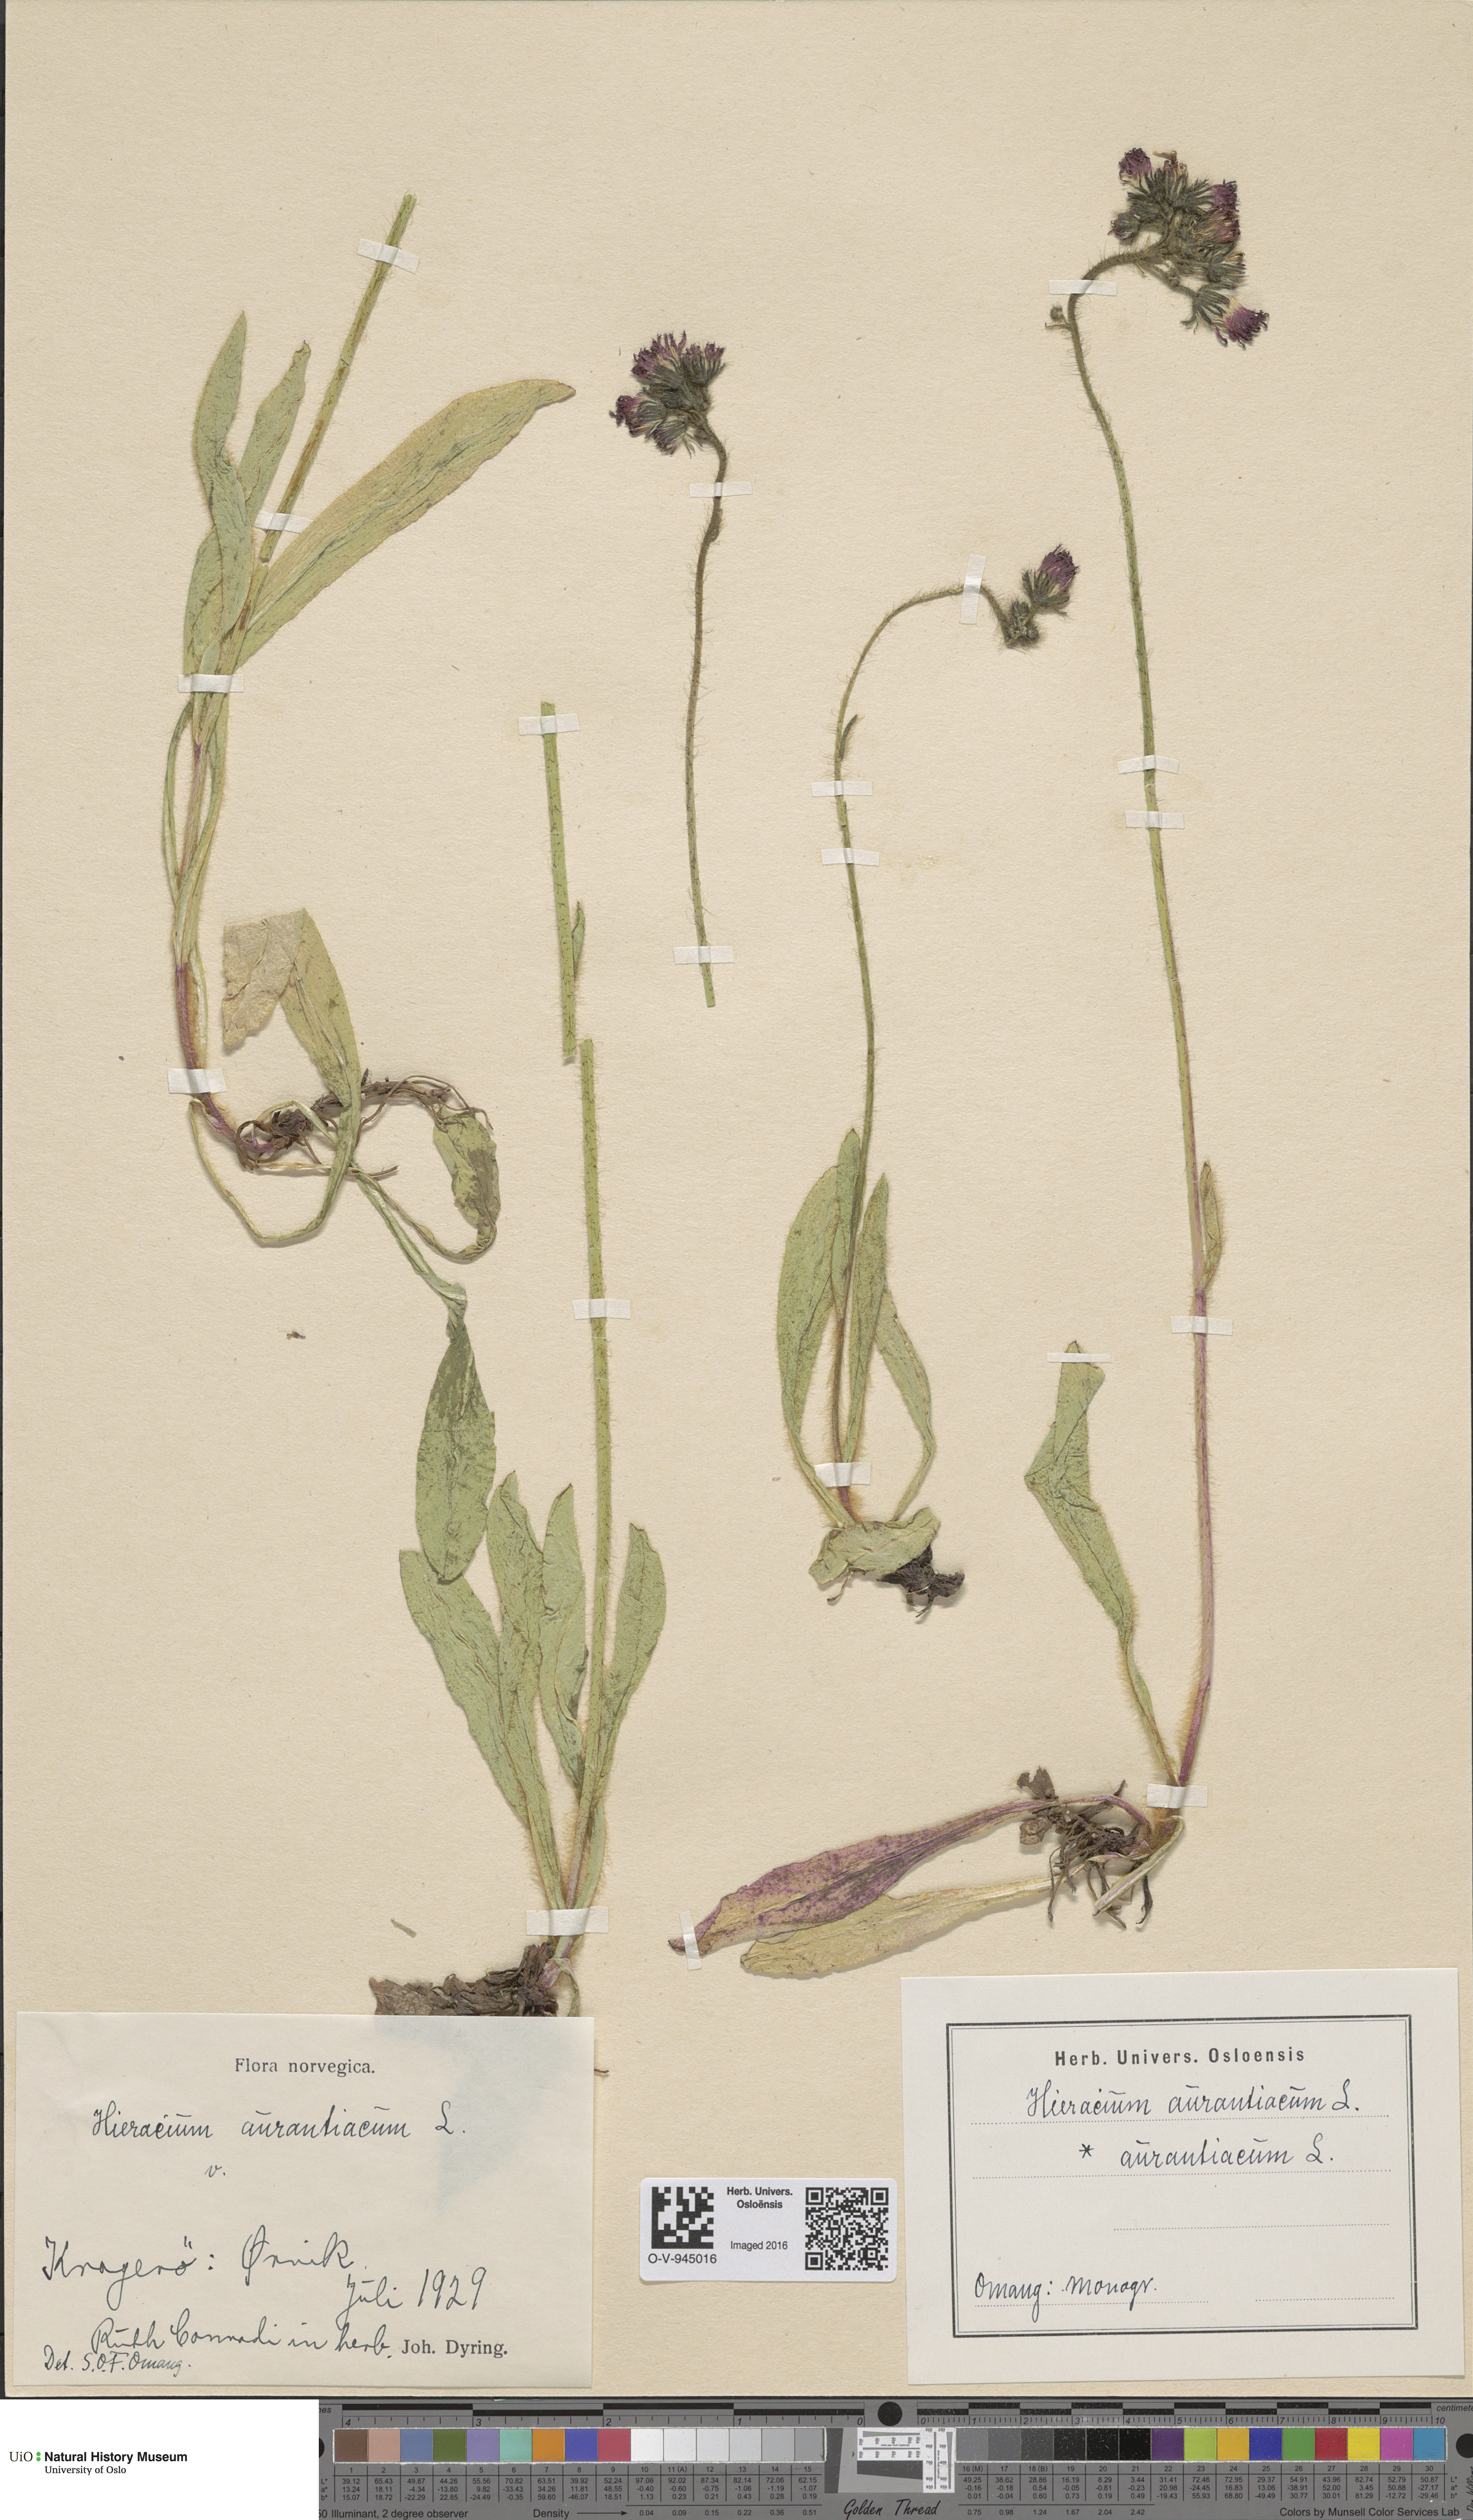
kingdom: Plantae
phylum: Tracheophyta
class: Magnoliopsida
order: Asterales
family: Asteraceae
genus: Pilosella
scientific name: Pilosella aurantiaca
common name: Fox-and-cubs
